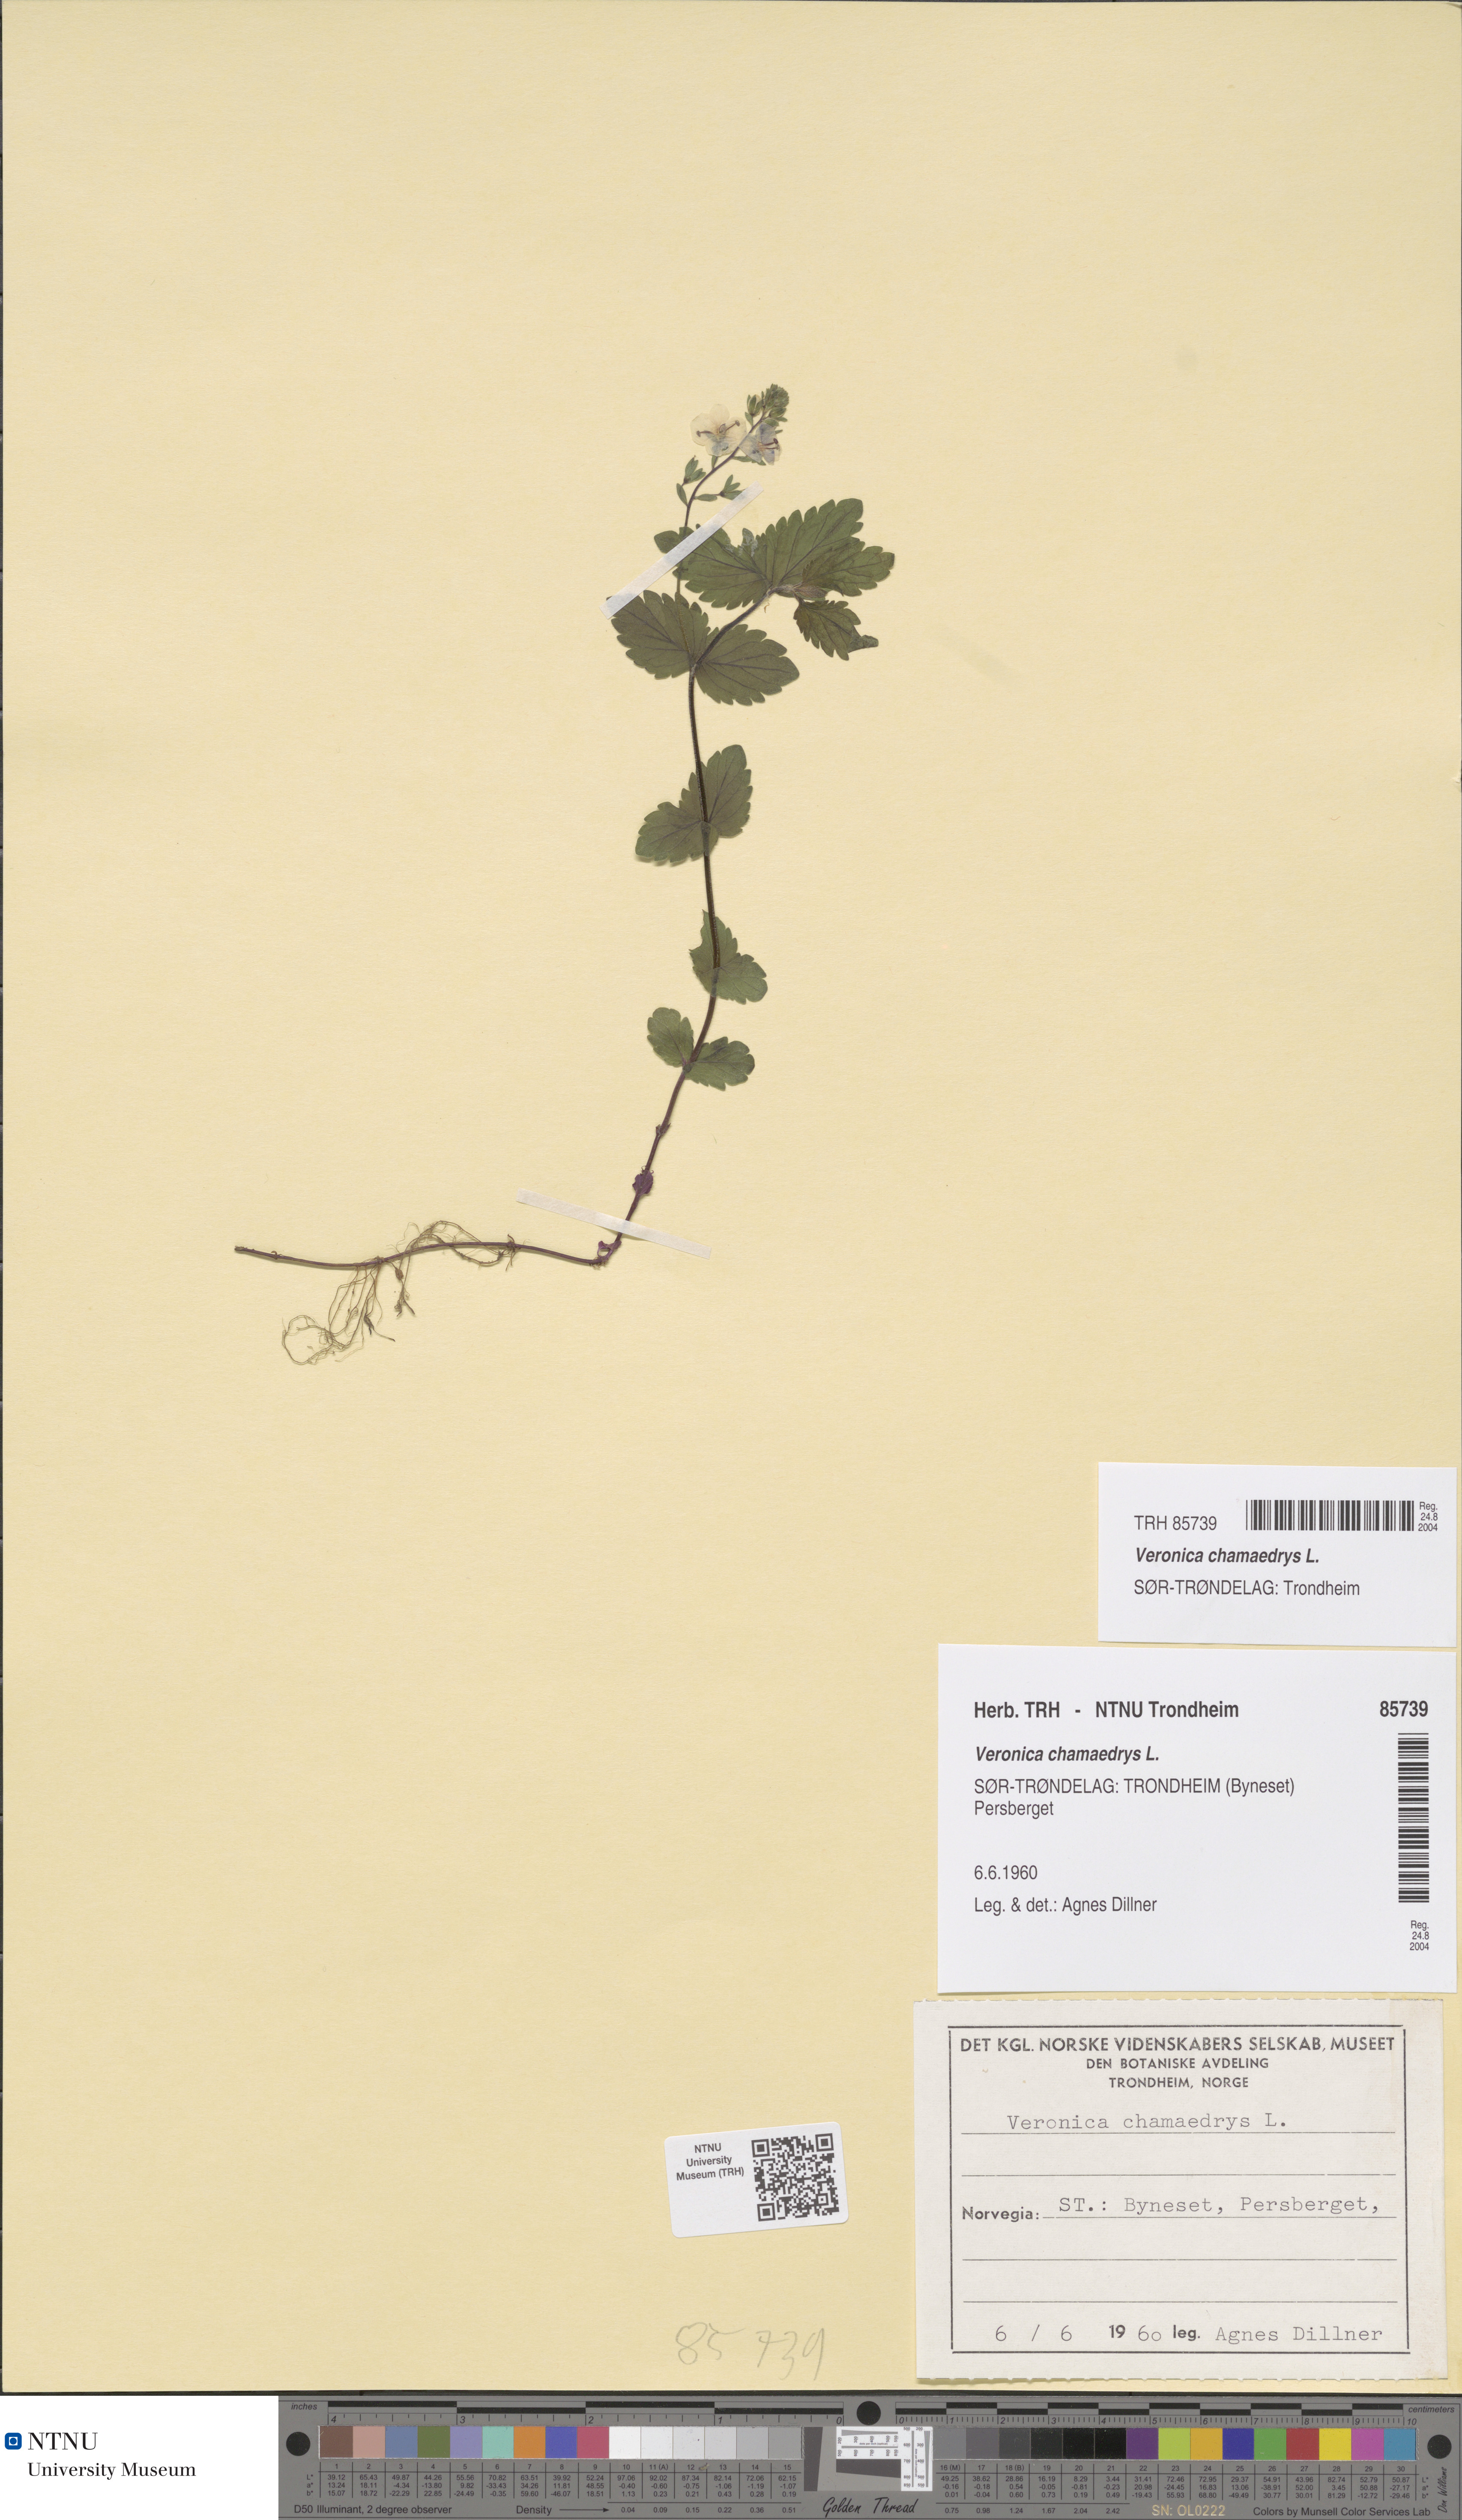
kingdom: Plantae
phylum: Tracheophyta
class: Magnoliopsida
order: Lamiales
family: Plantaginaceae
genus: Veronica
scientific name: Veronica chamaedrys
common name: Germander speedwell
